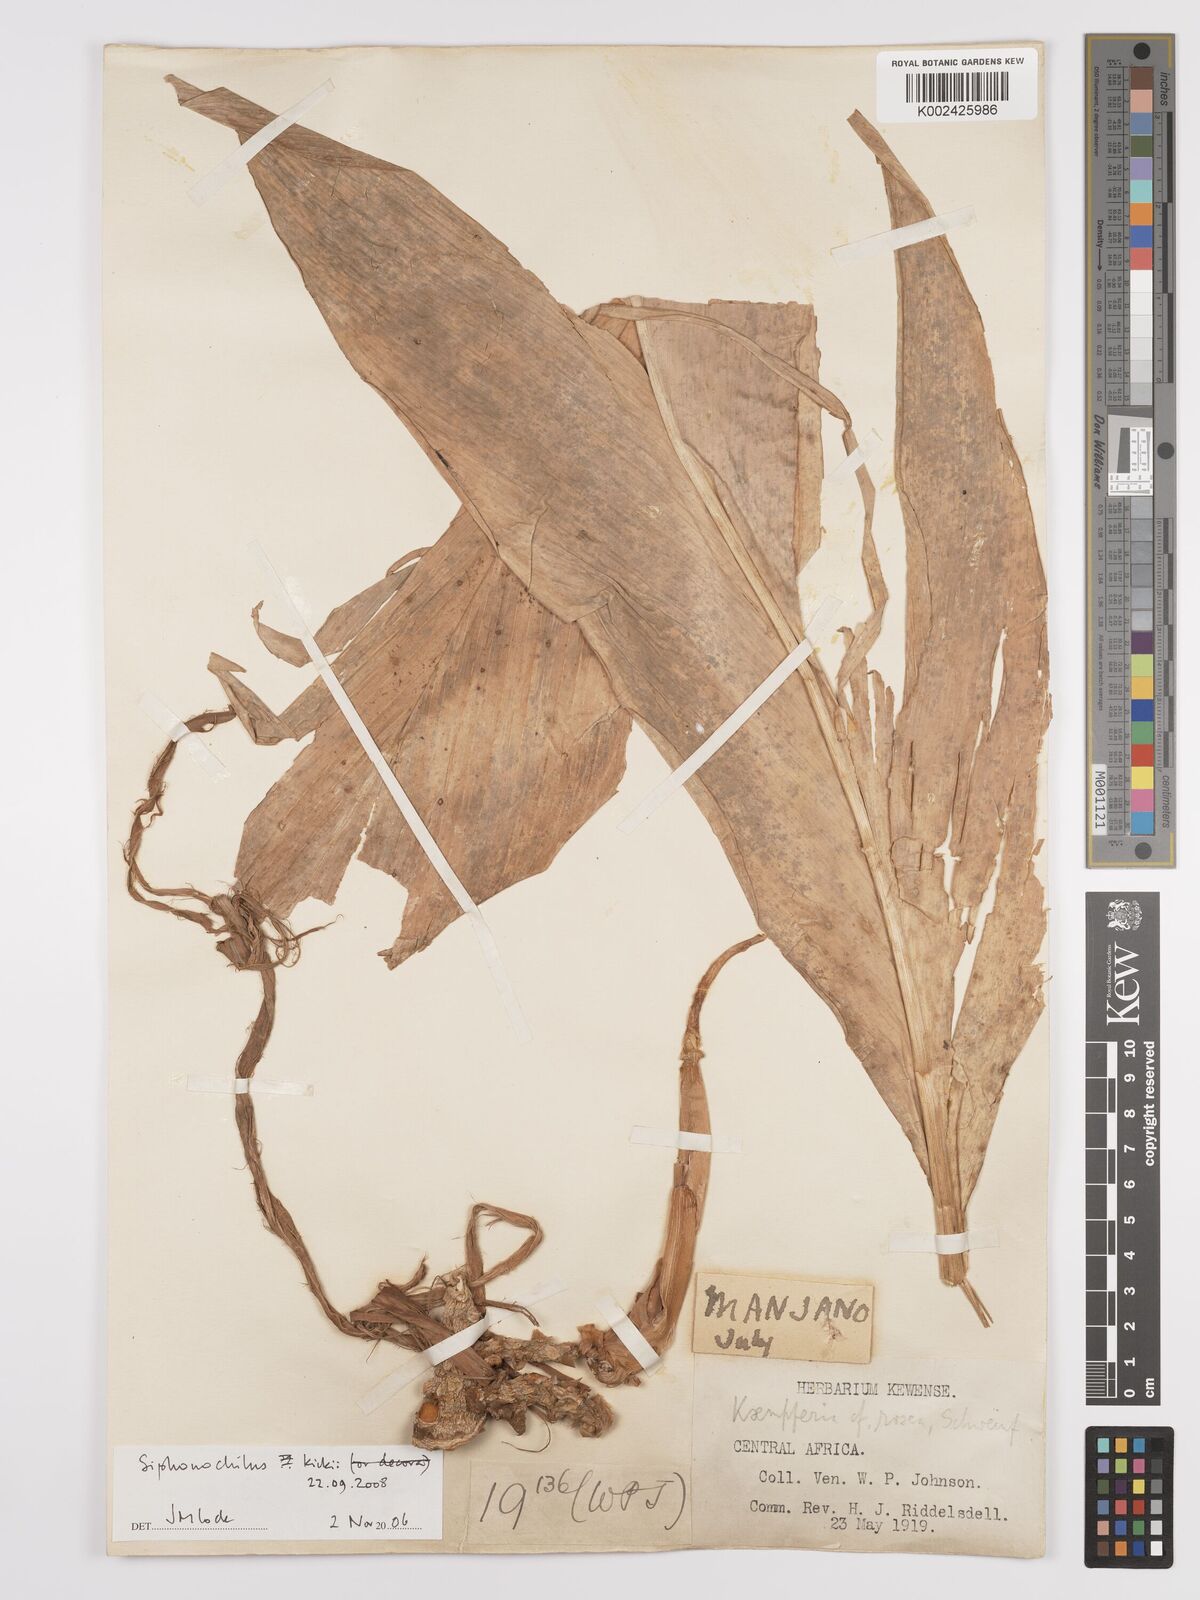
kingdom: Plantae
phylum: Tracheophyta
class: Liliopsida
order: Zingiberales
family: Zingiberaceae
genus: Siphonochilus
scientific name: Siphonochilus kirkii
